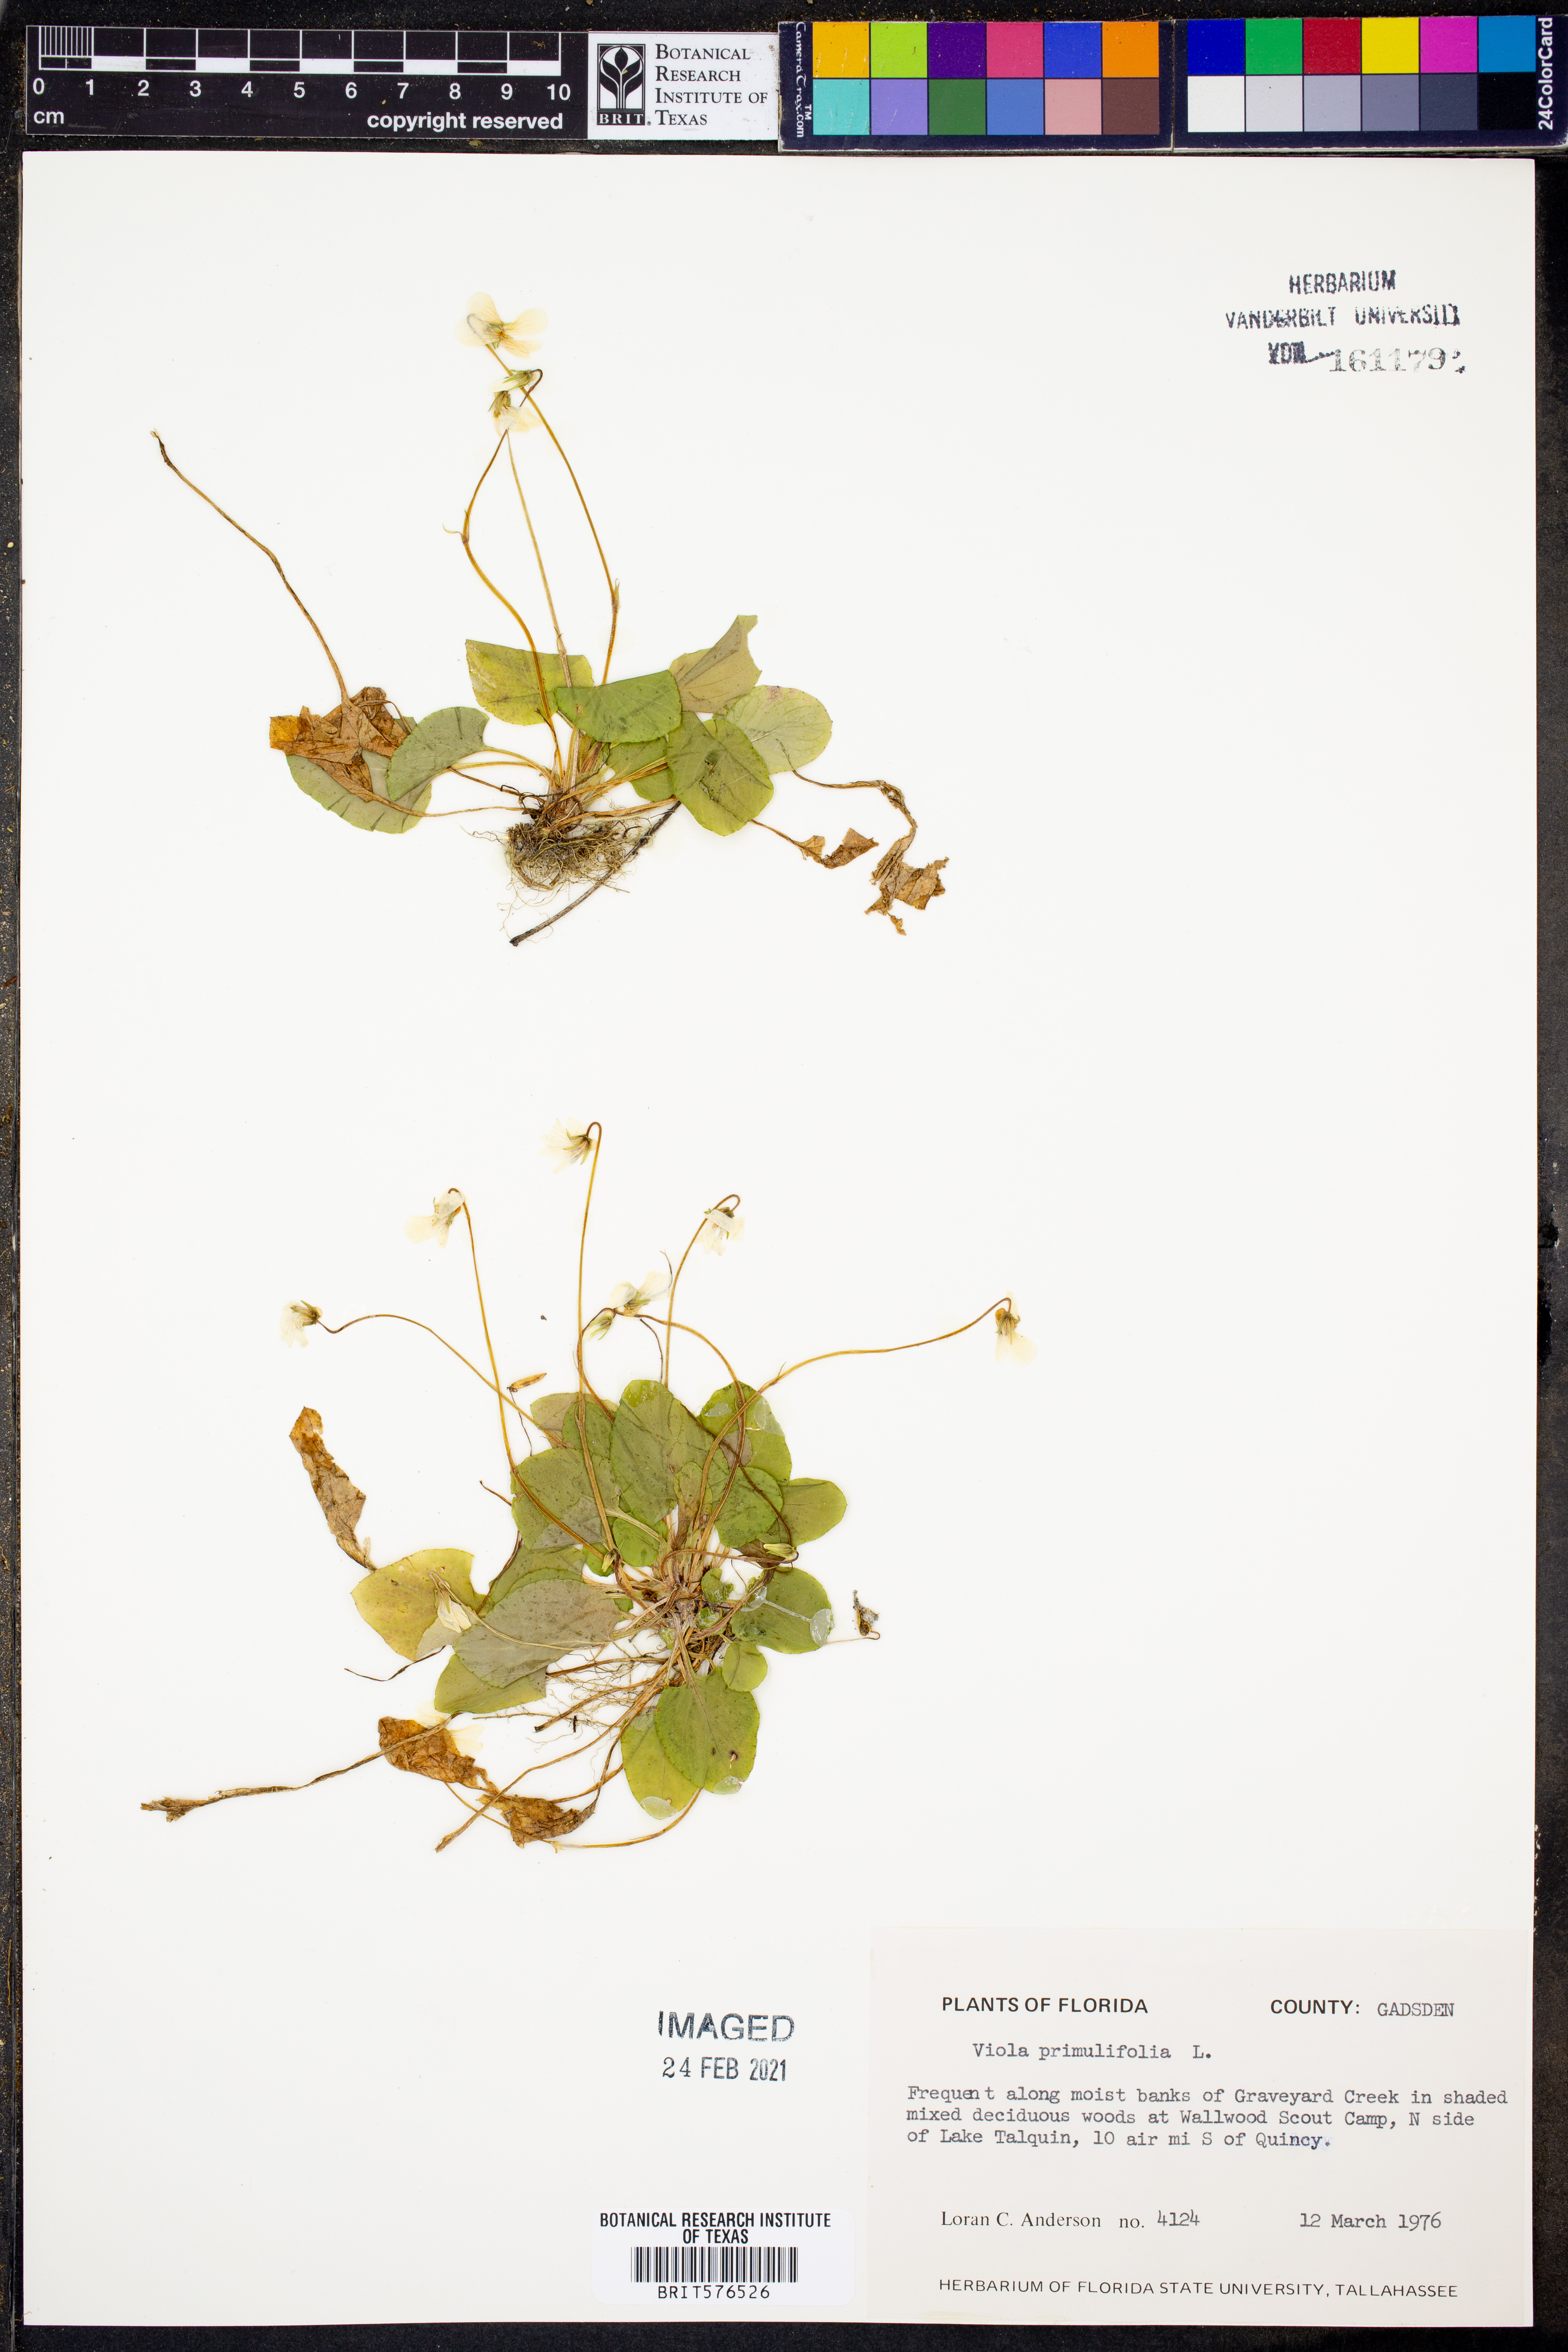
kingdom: Plantae
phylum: Tracheophyta
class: Magnoliopsida
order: Malpighiales
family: Violaceae
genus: Viola
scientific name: Viola primulifolia
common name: Primrose-leaf violet
